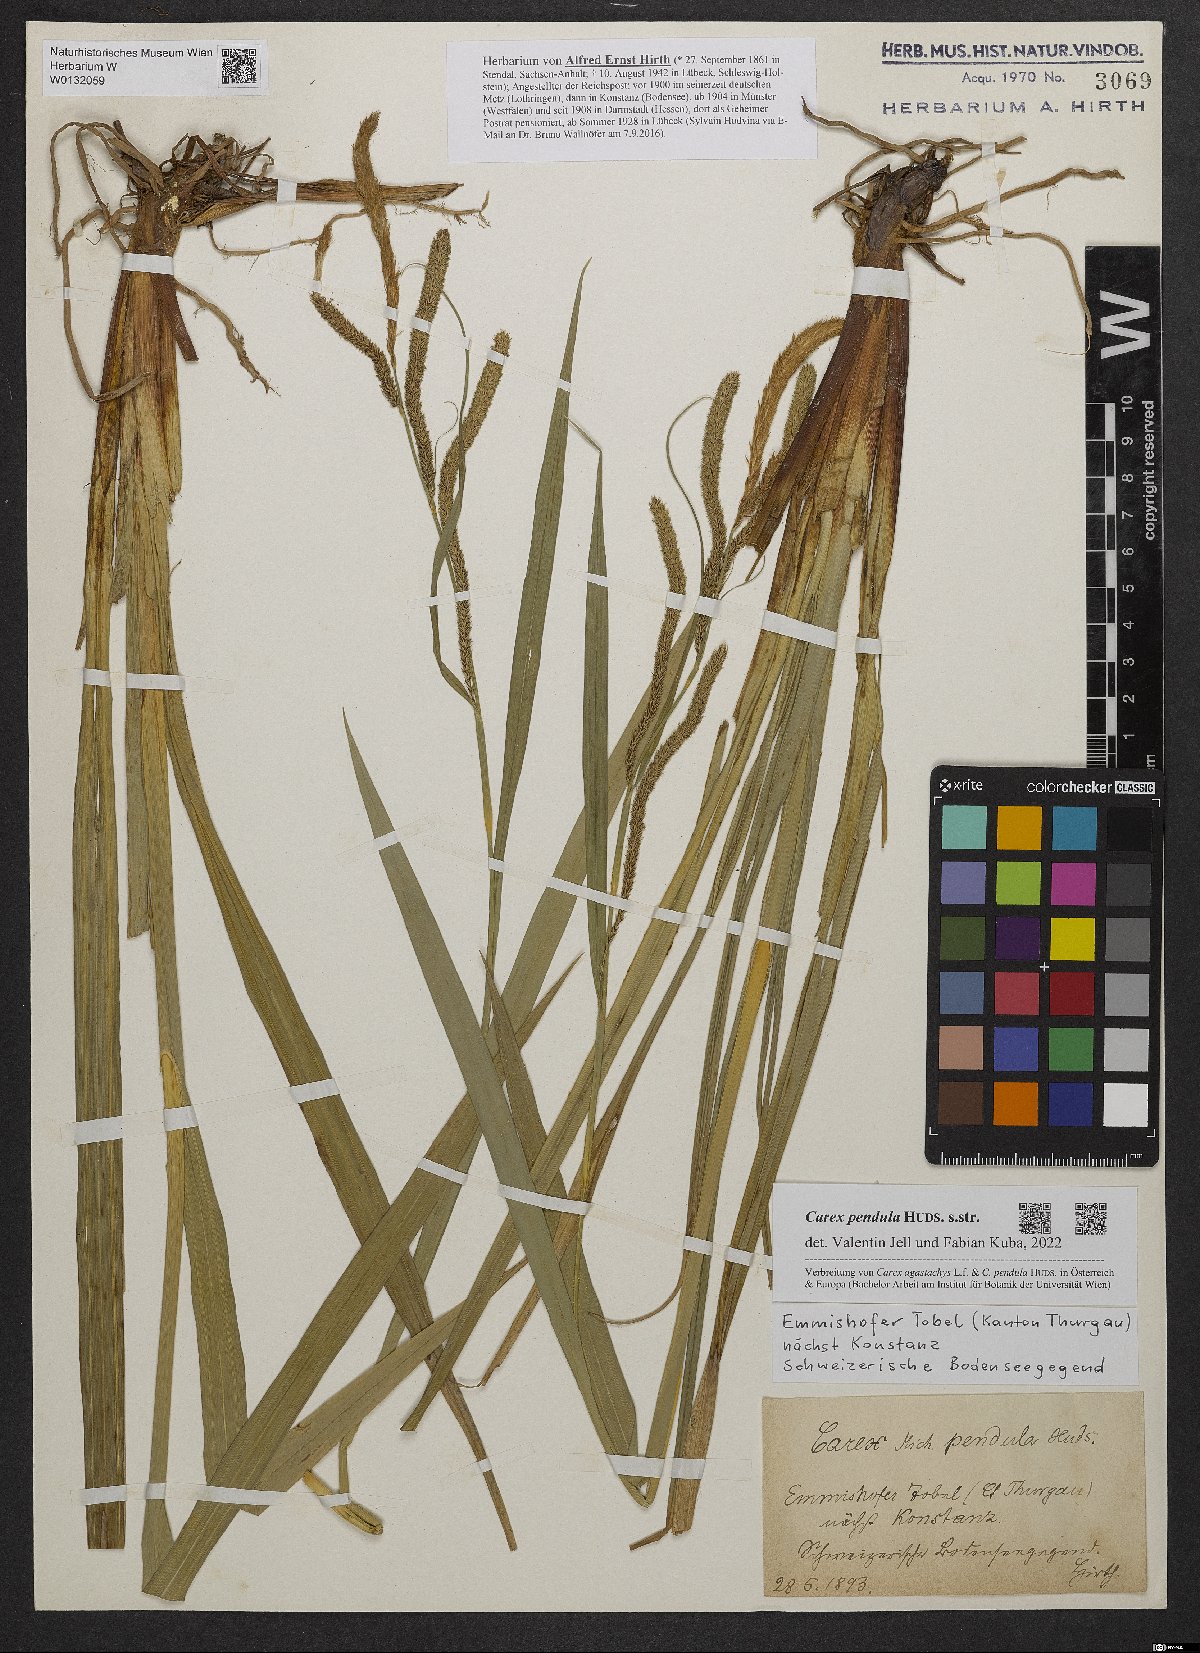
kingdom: Plantae
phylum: Tracheophyta
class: Liliopsida
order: Poales
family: Cyperaceae
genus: Carex
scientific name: Carex pendula
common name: Pendulous sedge
